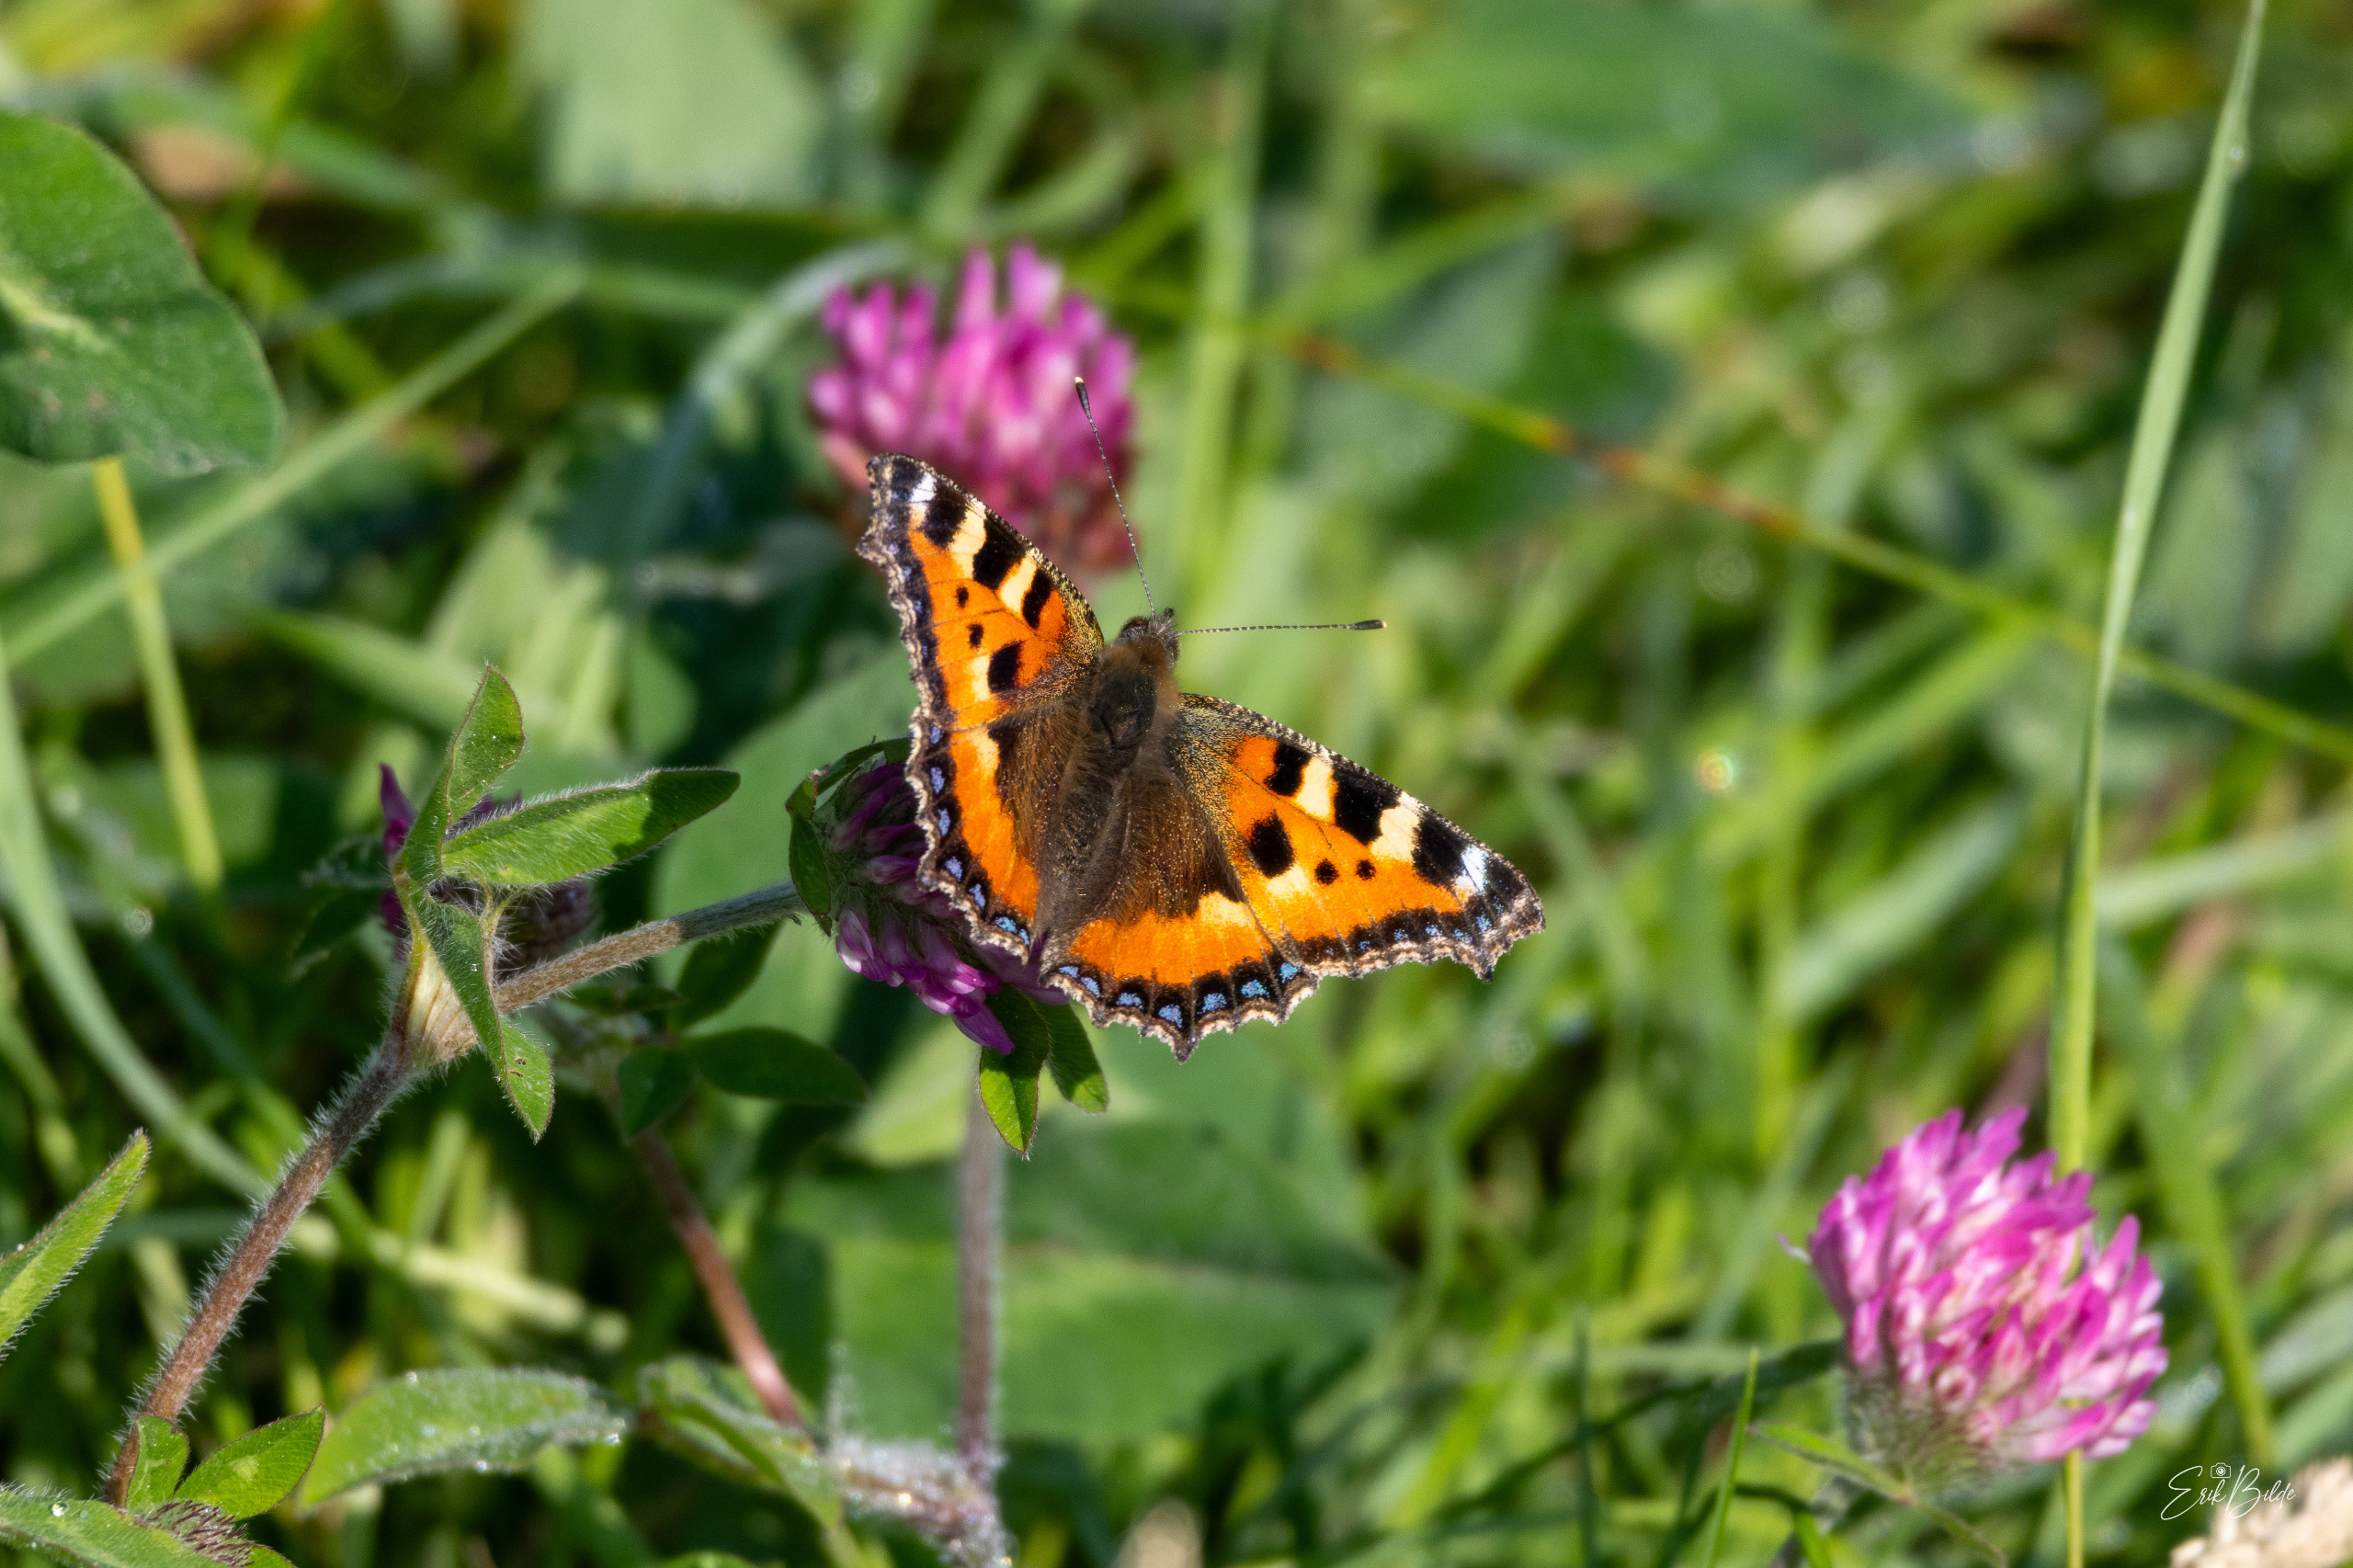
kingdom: Animalia
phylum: Arthropoda
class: Insecta
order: Lepidoptera
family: Nymphalidae
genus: Aglais
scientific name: Aglais urticae
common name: Nældens takvinge
